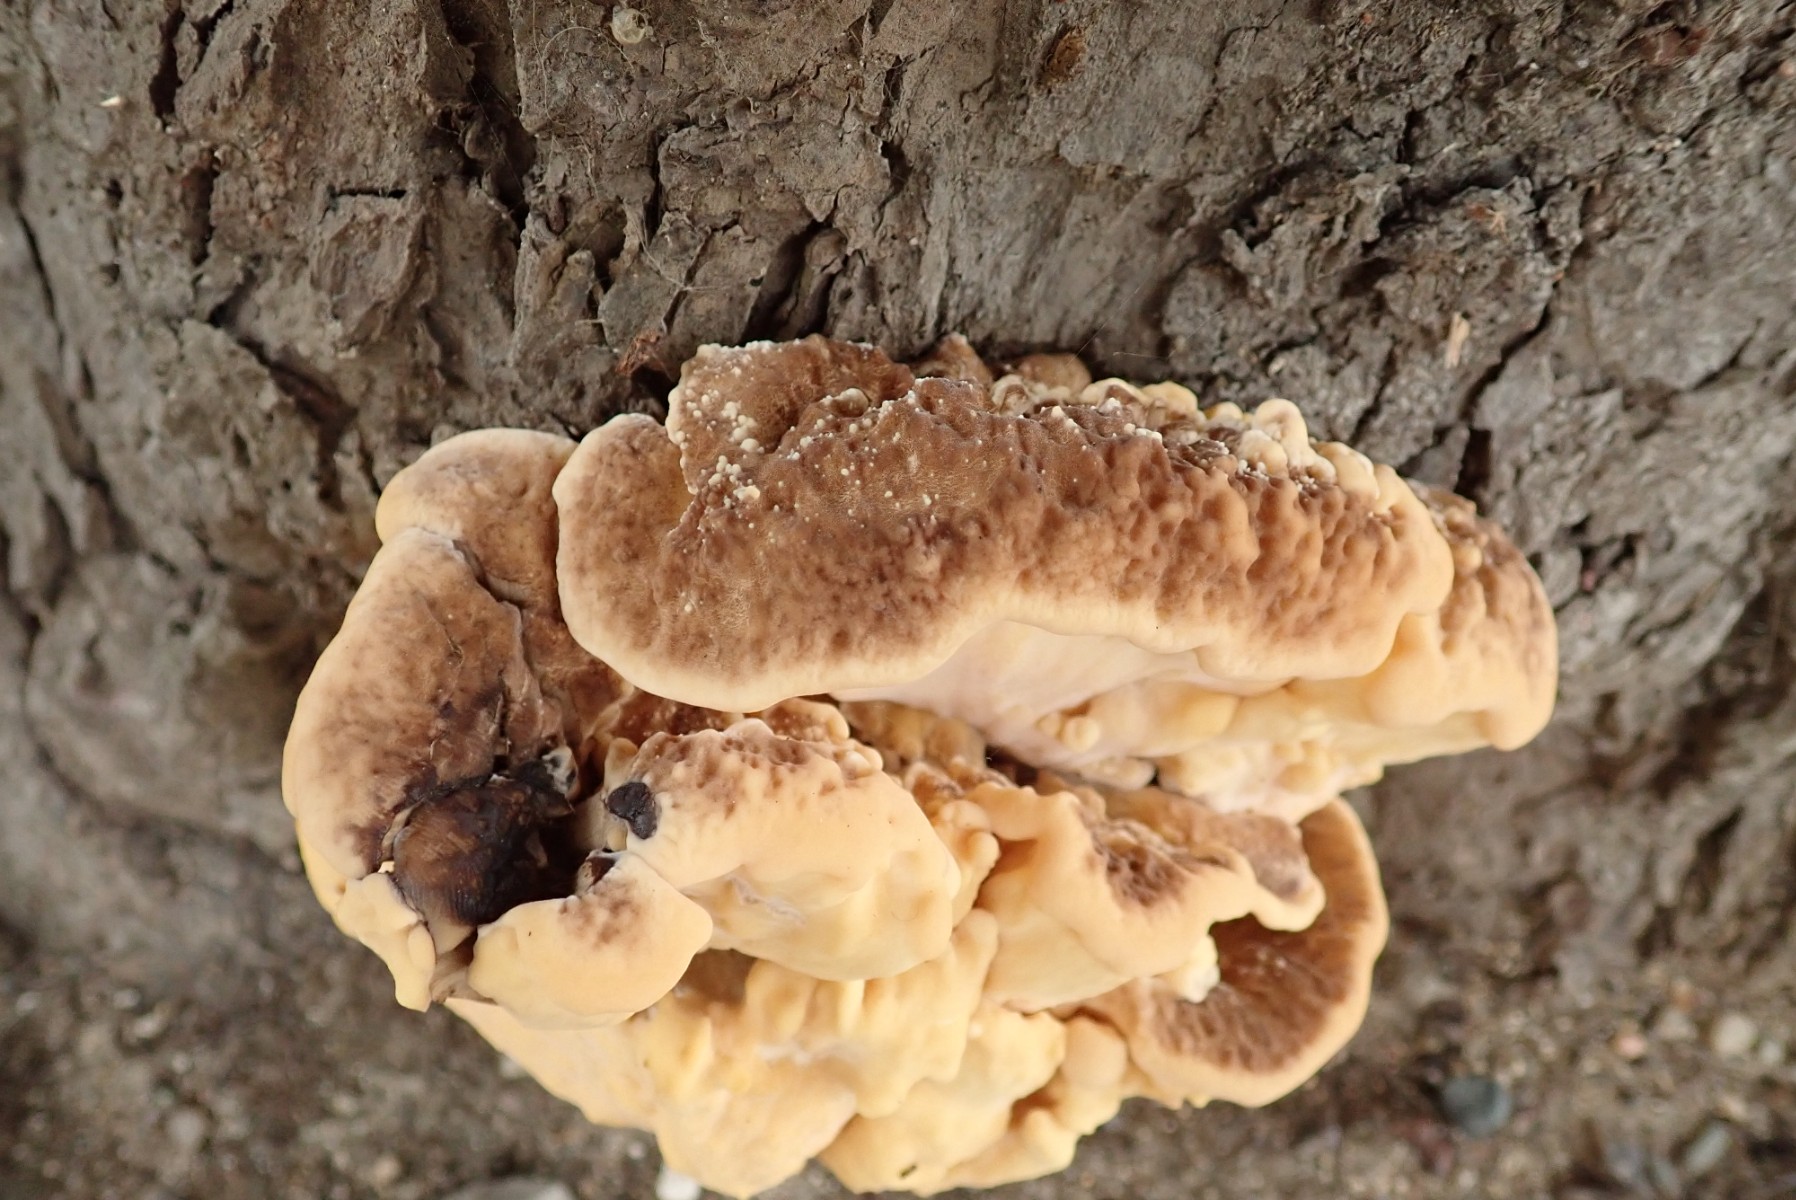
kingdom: Fungi
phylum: Basidiomycota
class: Agaricomycetes
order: Polyporales
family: Meripilaceae
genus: Meripilus
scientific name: Meripilus giganteus
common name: kæmpeporesvamp
